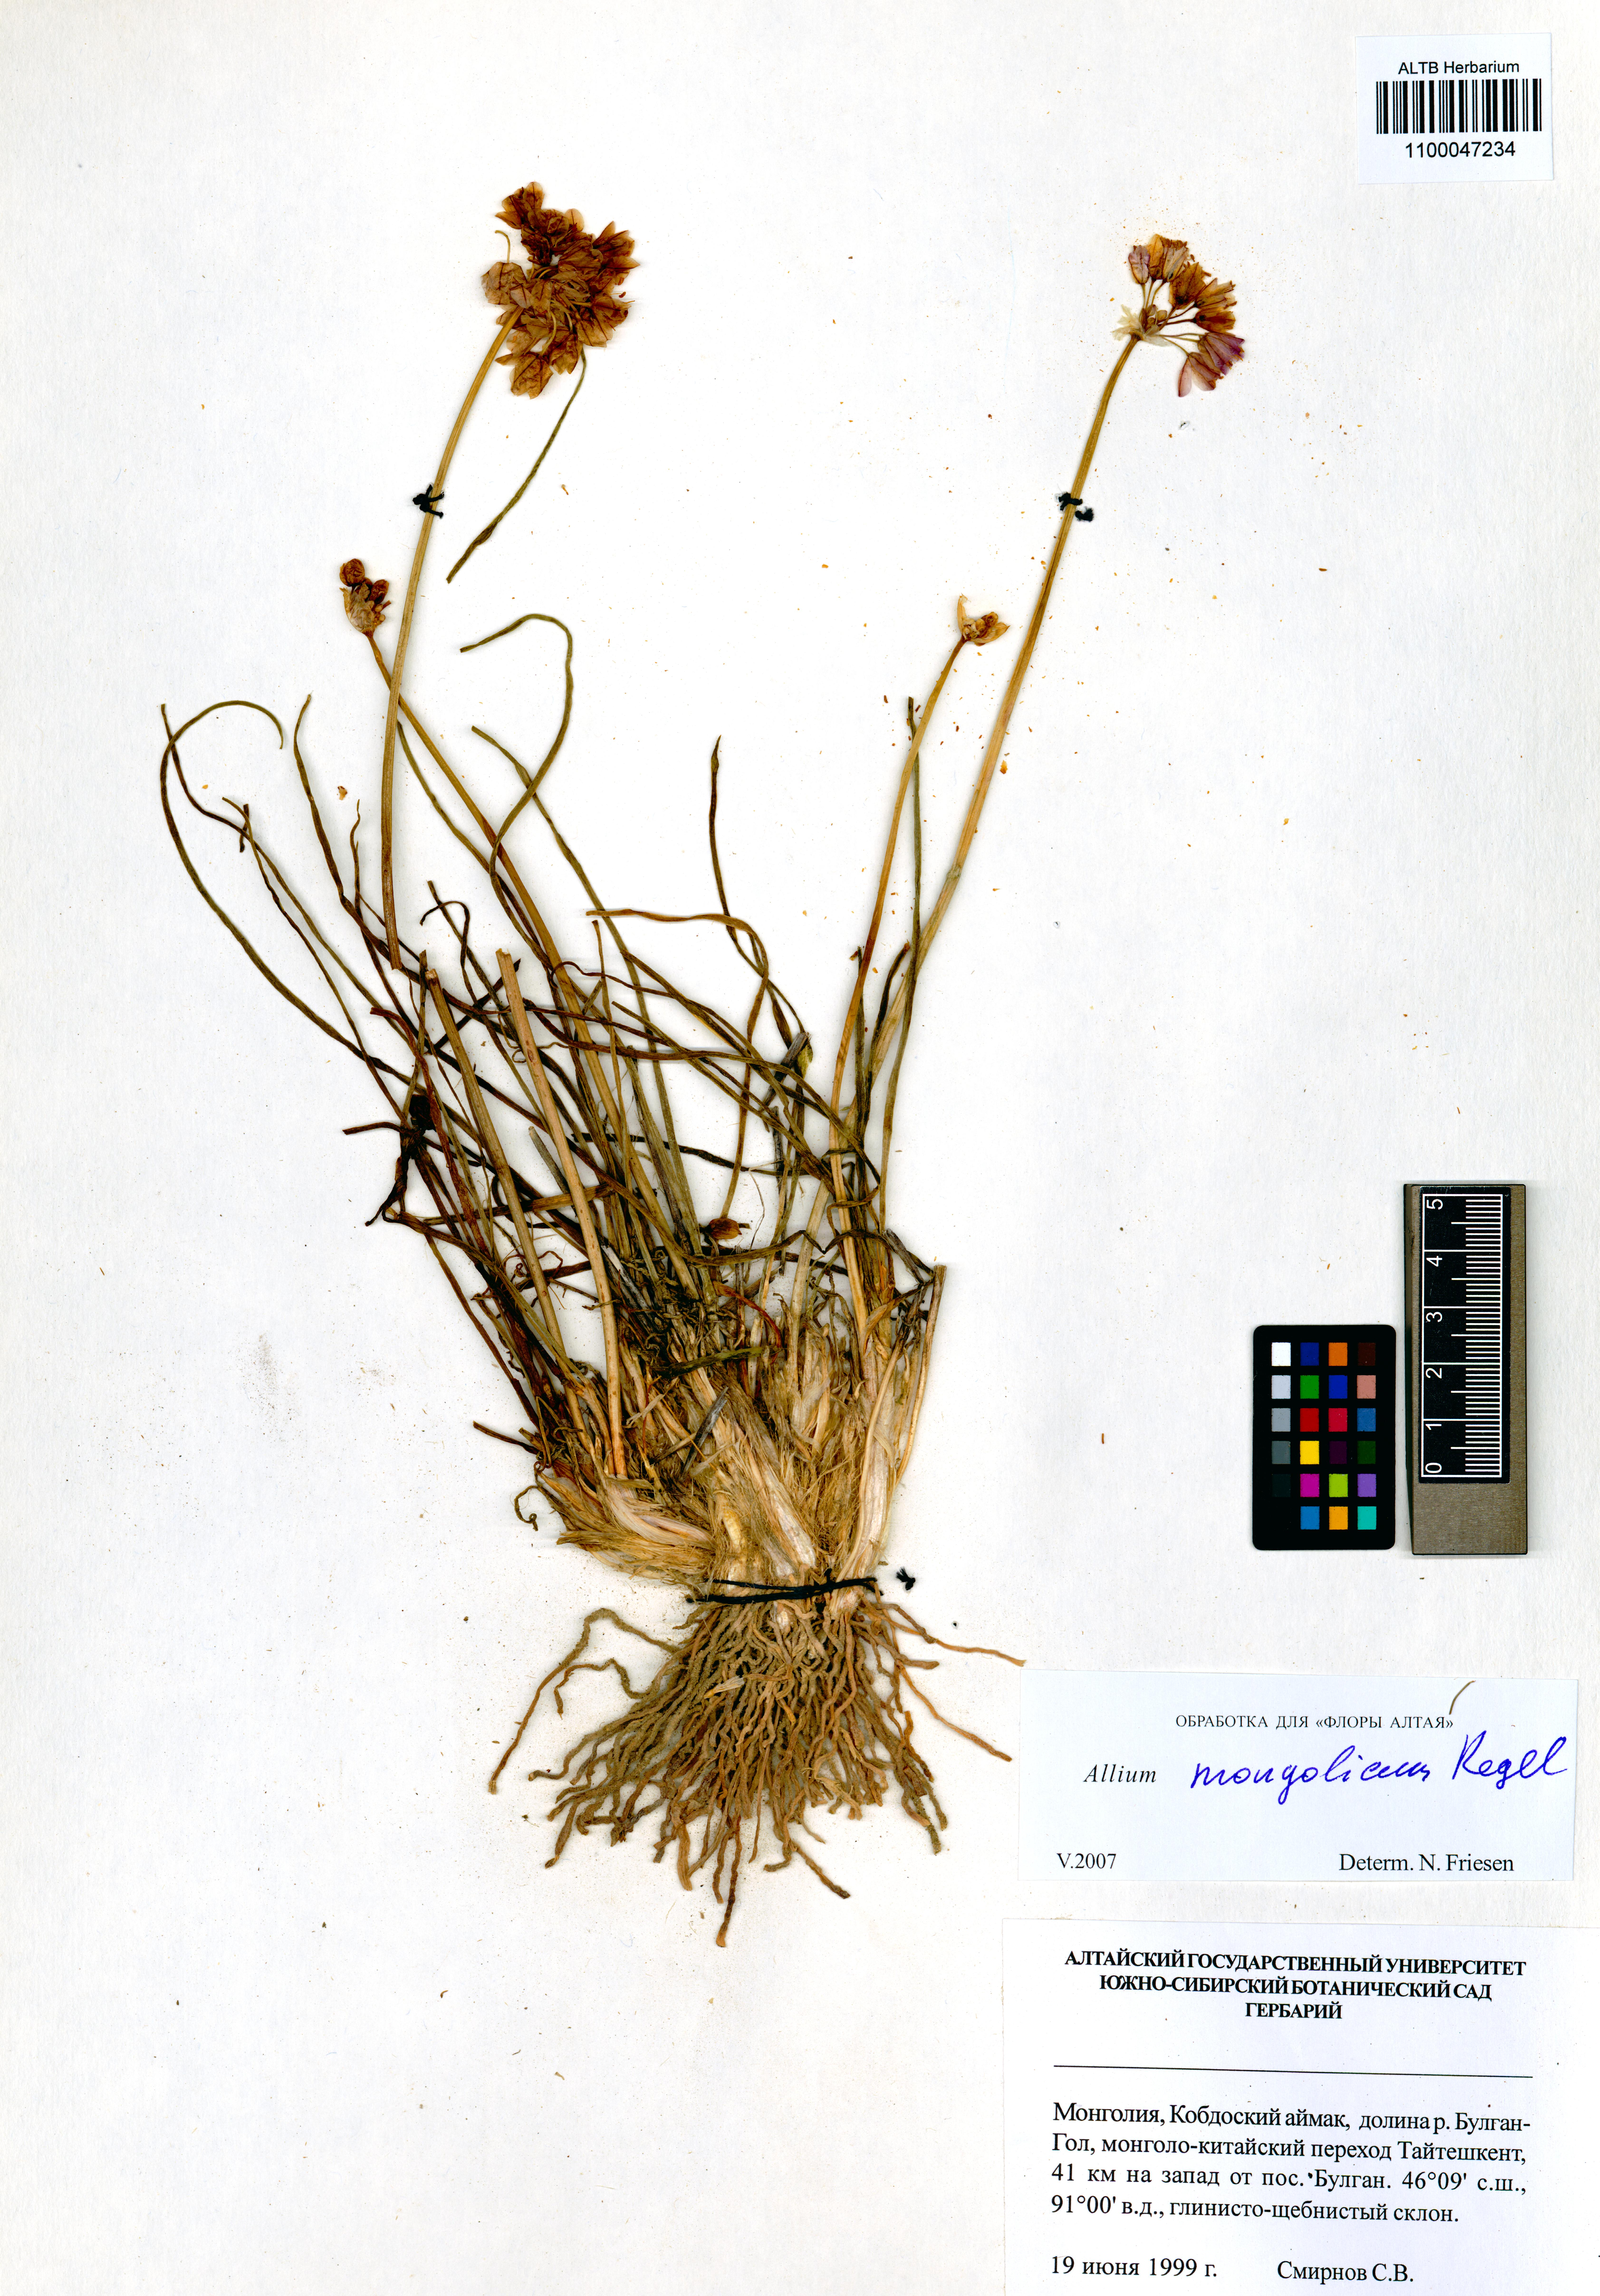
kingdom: Plantae
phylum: Tracheophyta
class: Liliopsida
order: Asparagales
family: Amaryllidaceae
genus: Allium
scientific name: Allium mongolicum
